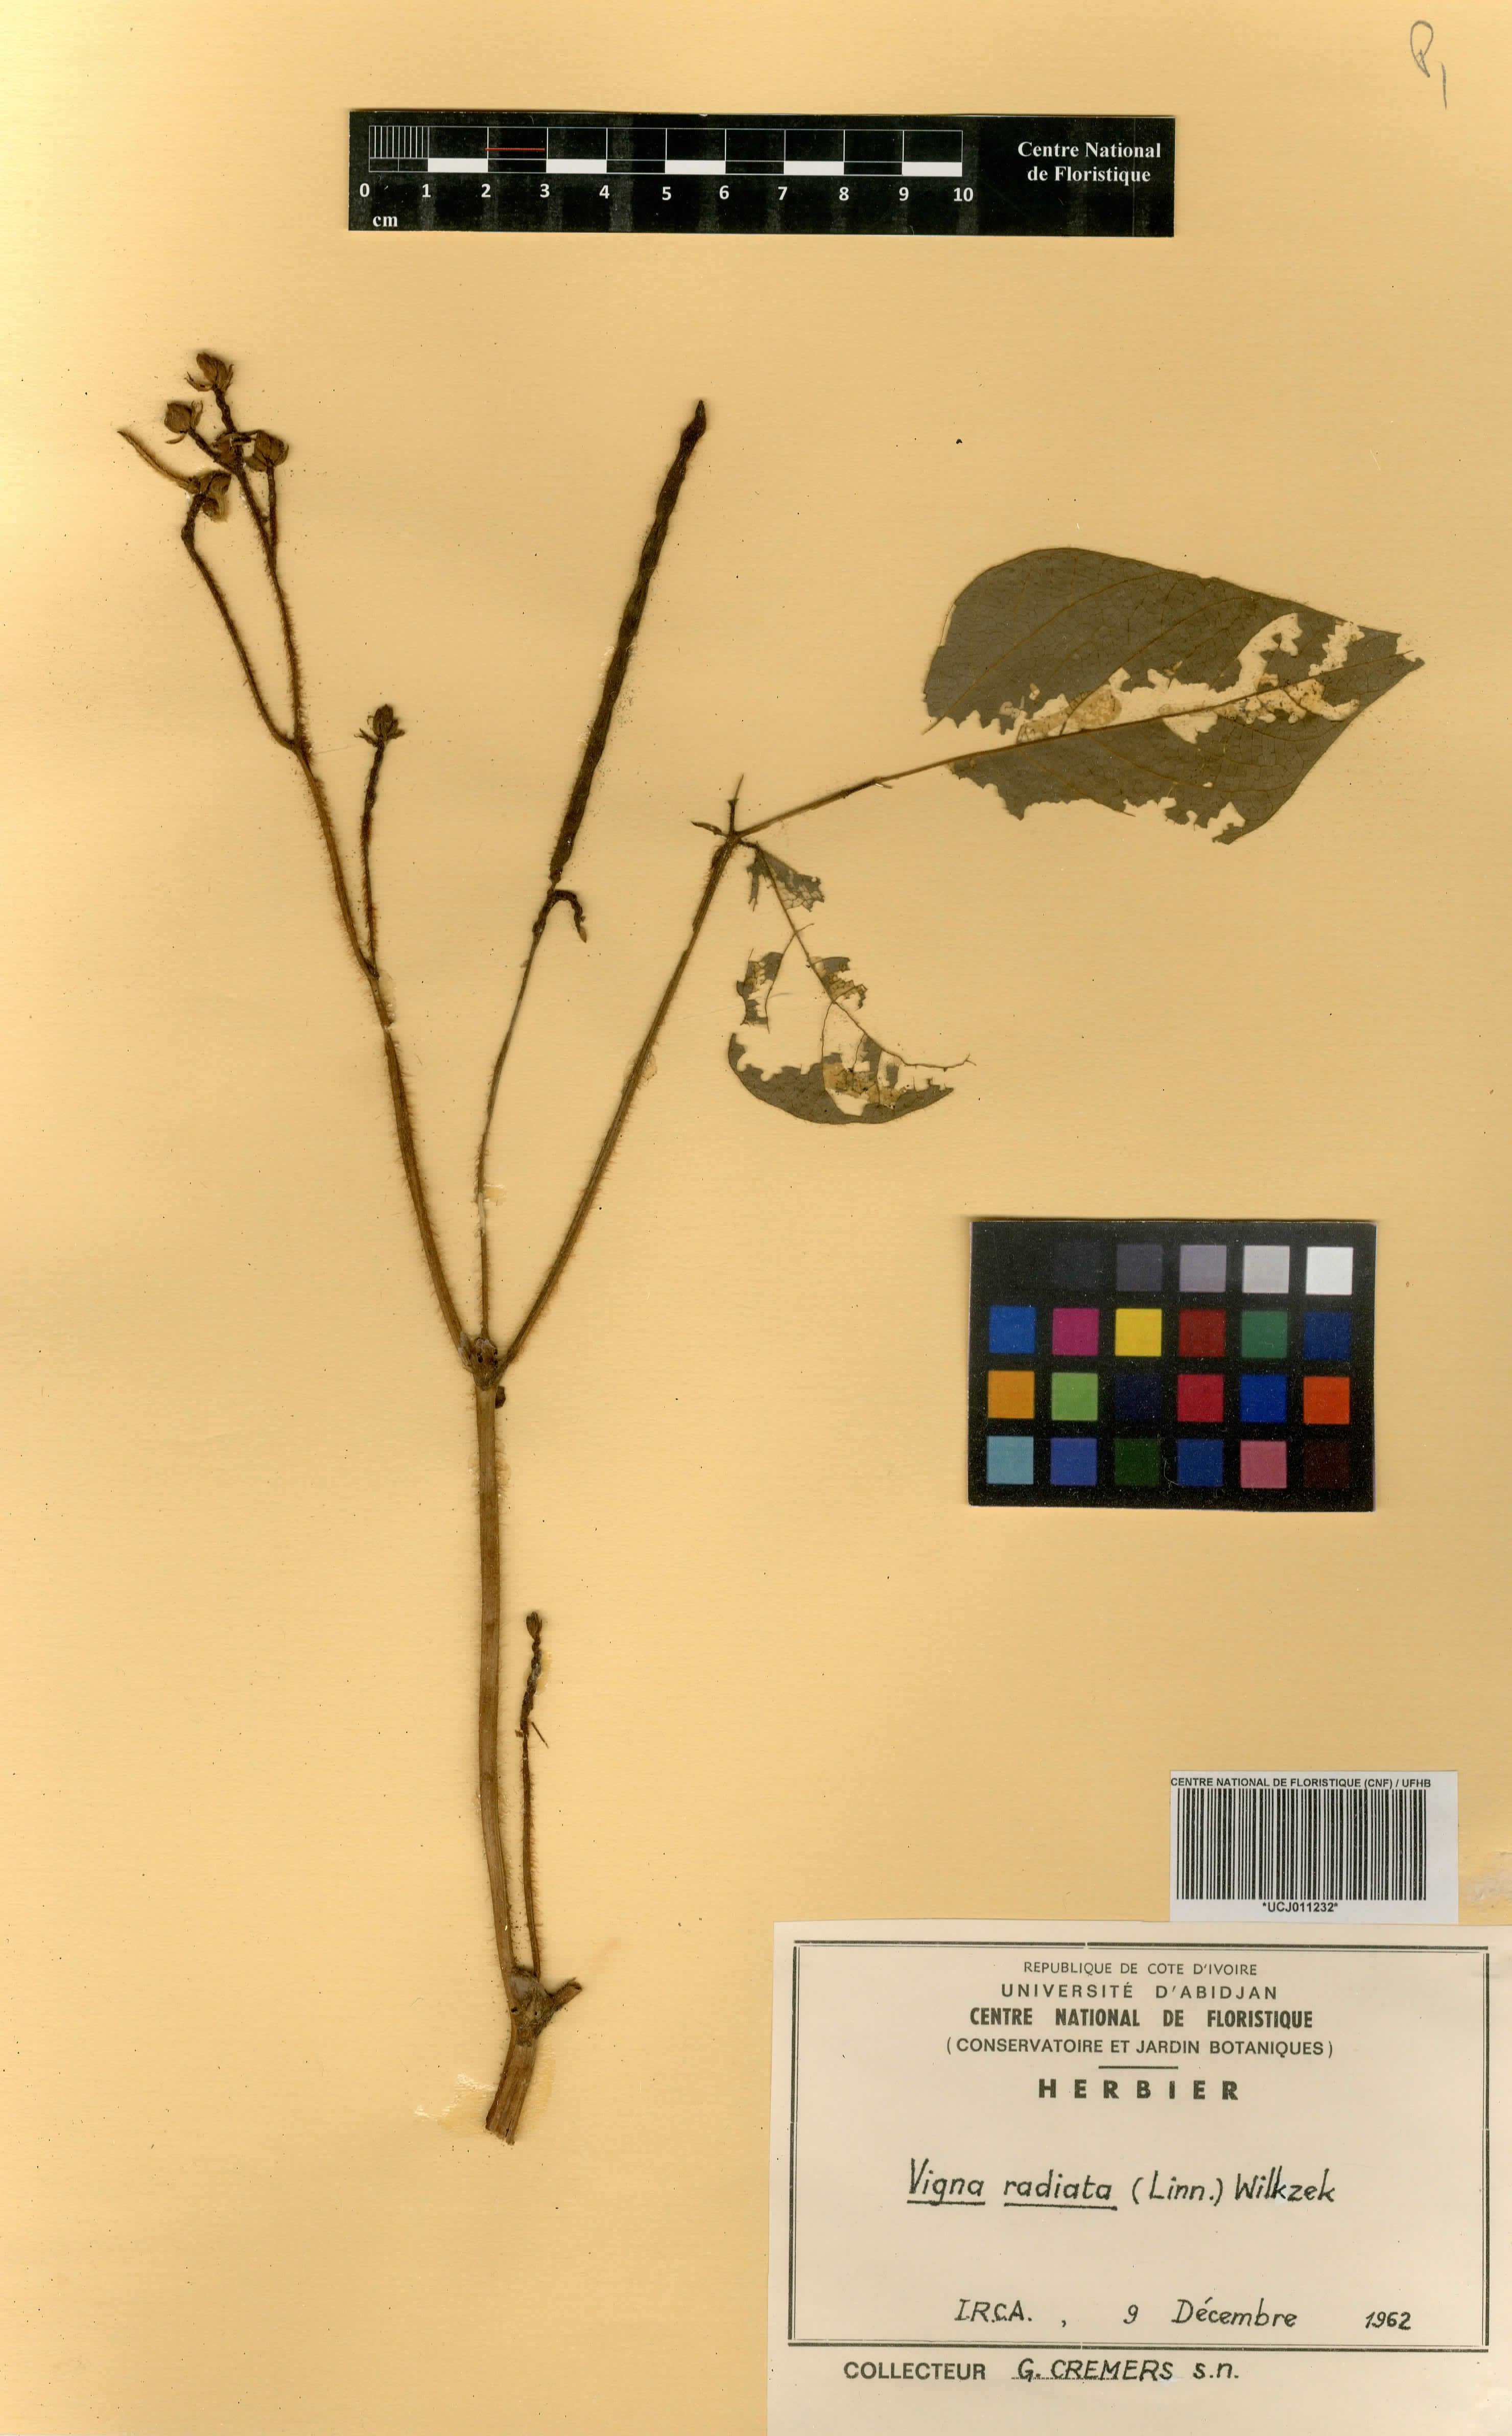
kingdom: Plantae
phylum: Tracheophyta
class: Magnoliopsida
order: Fabales
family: Fabaceae
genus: Vigna
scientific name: Vigna reticulata
